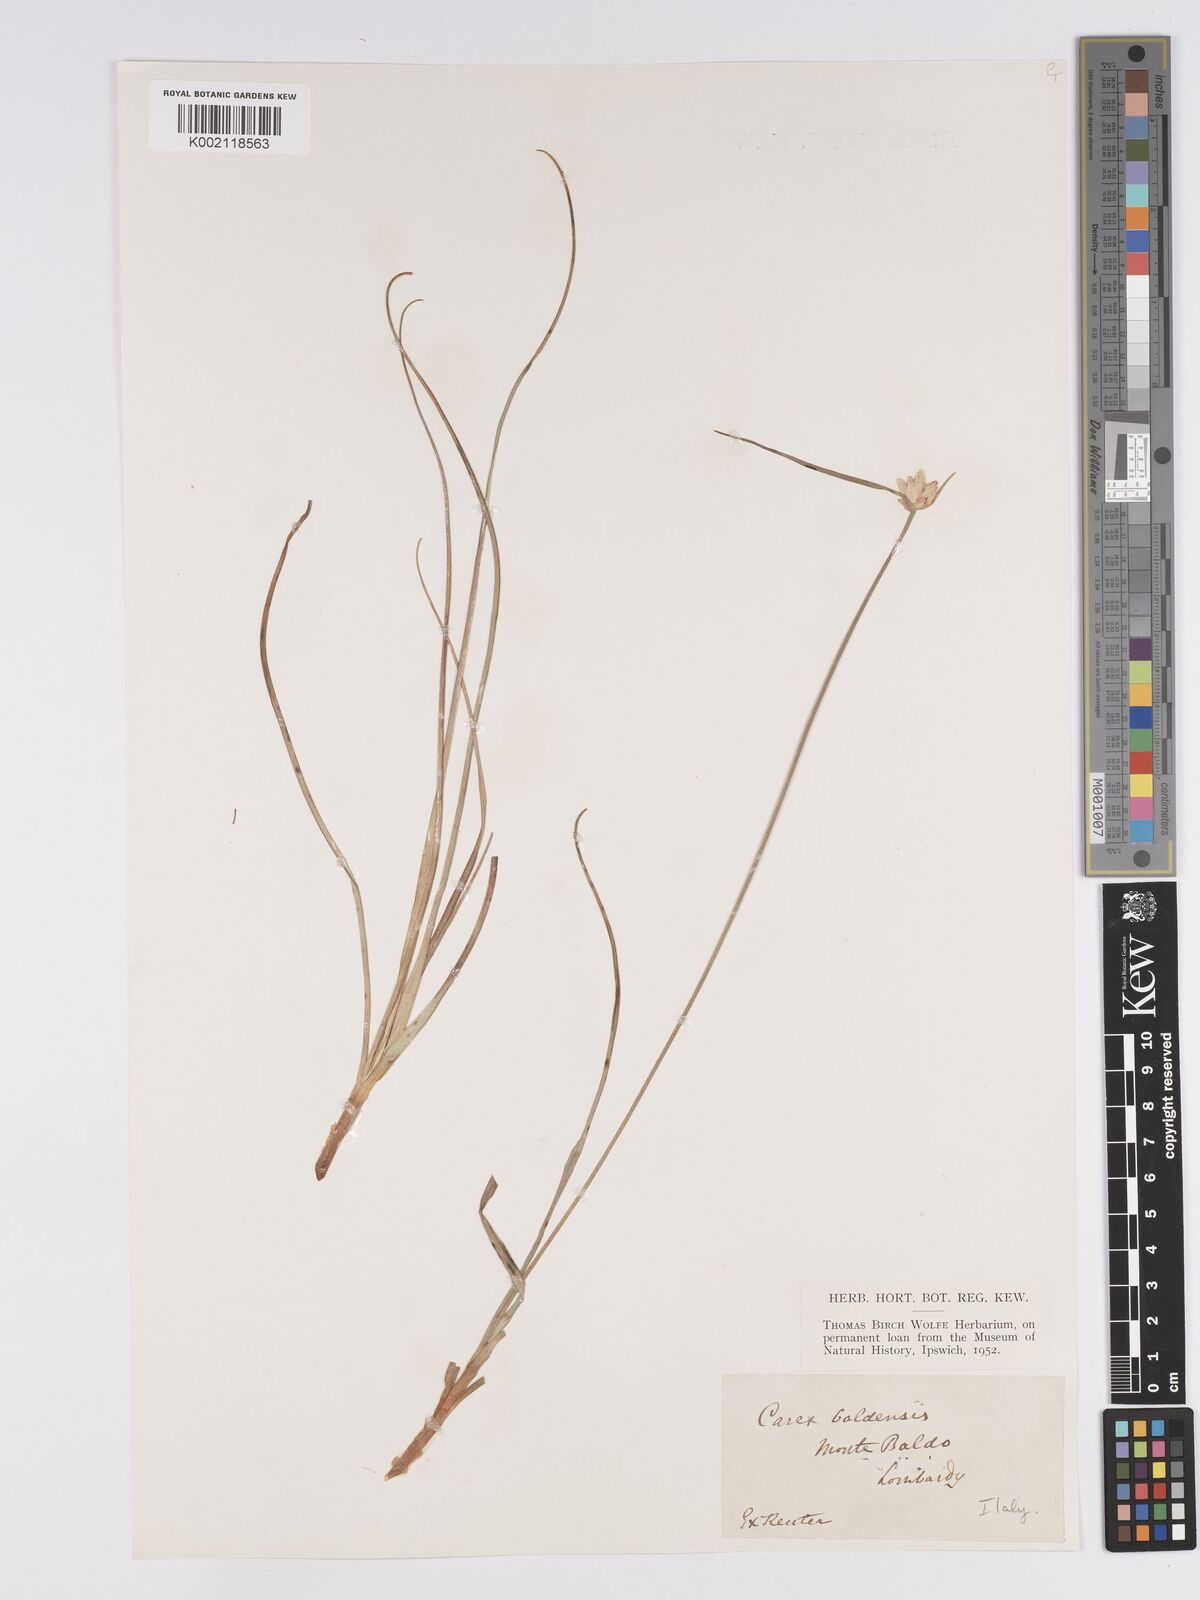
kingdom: Plantae
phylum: Tracheophyta
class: Liliopsida
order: Poales
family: Cyperaceae
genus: Carex
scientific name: Carex baldensis
